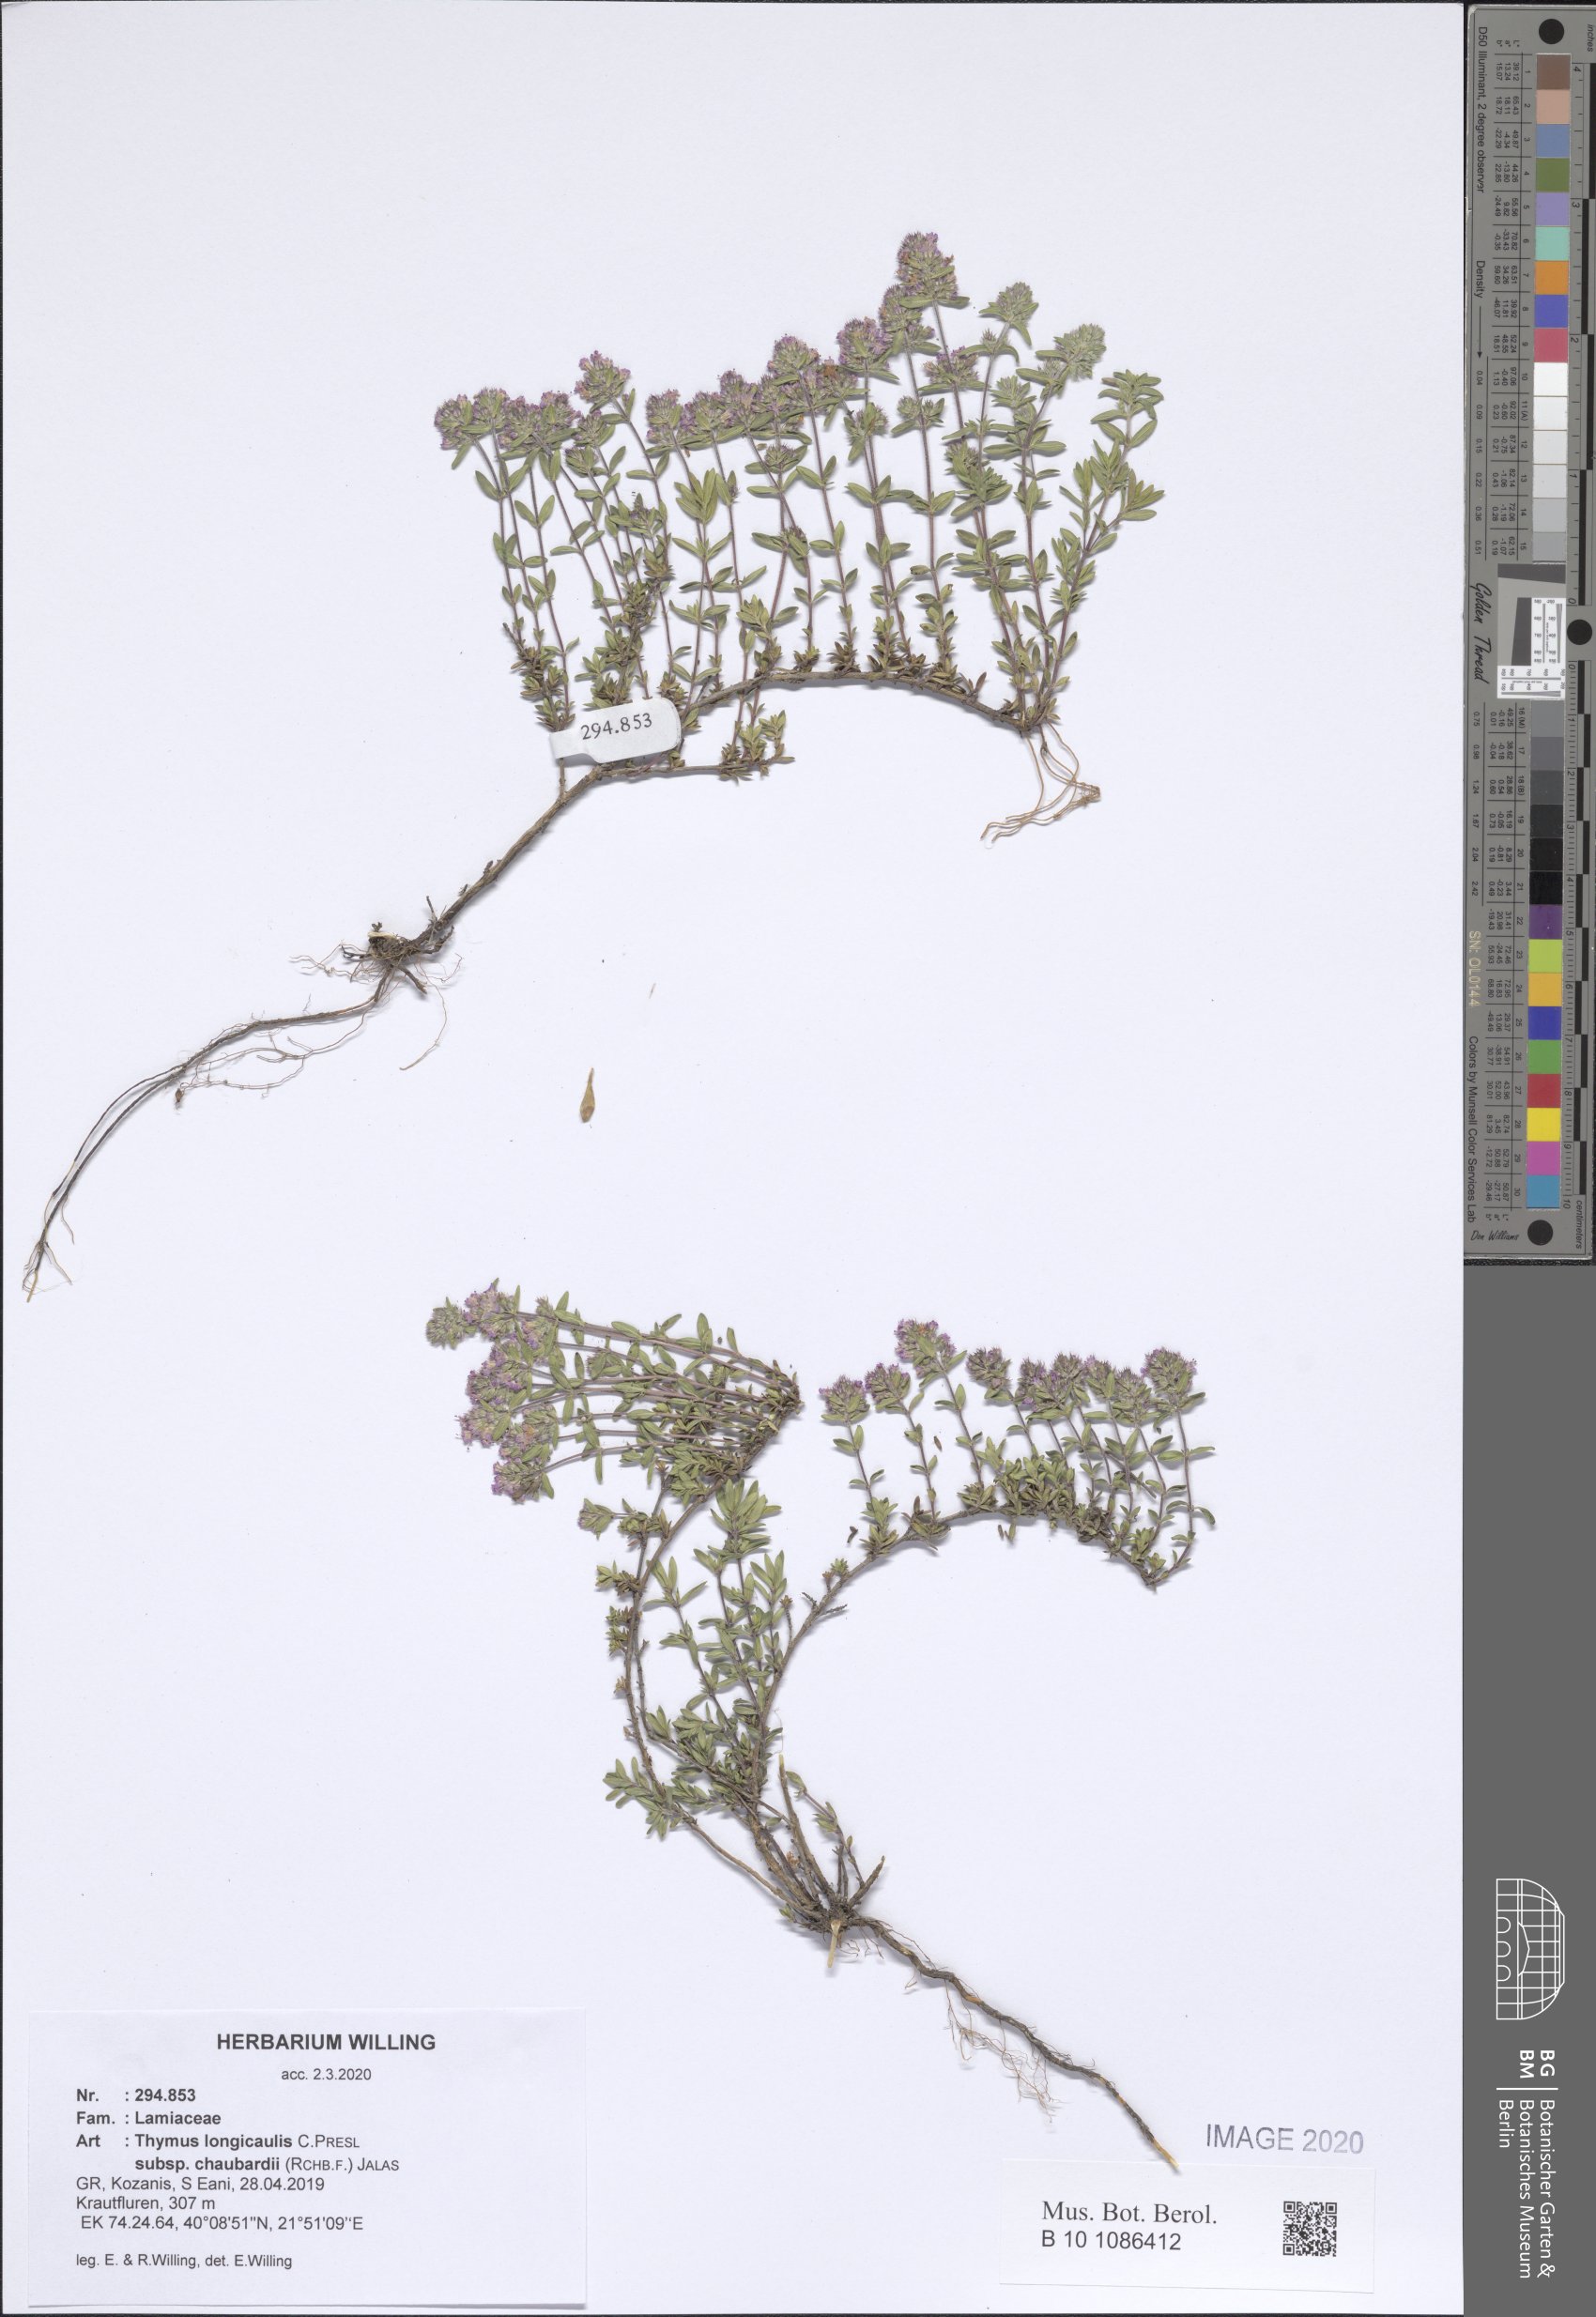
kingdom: Plantae
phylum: Tracheophyta
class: Magnoliopsida
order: Lamiales
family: Lamiaceae
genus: Thymus
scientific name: Thymus longicaulis
